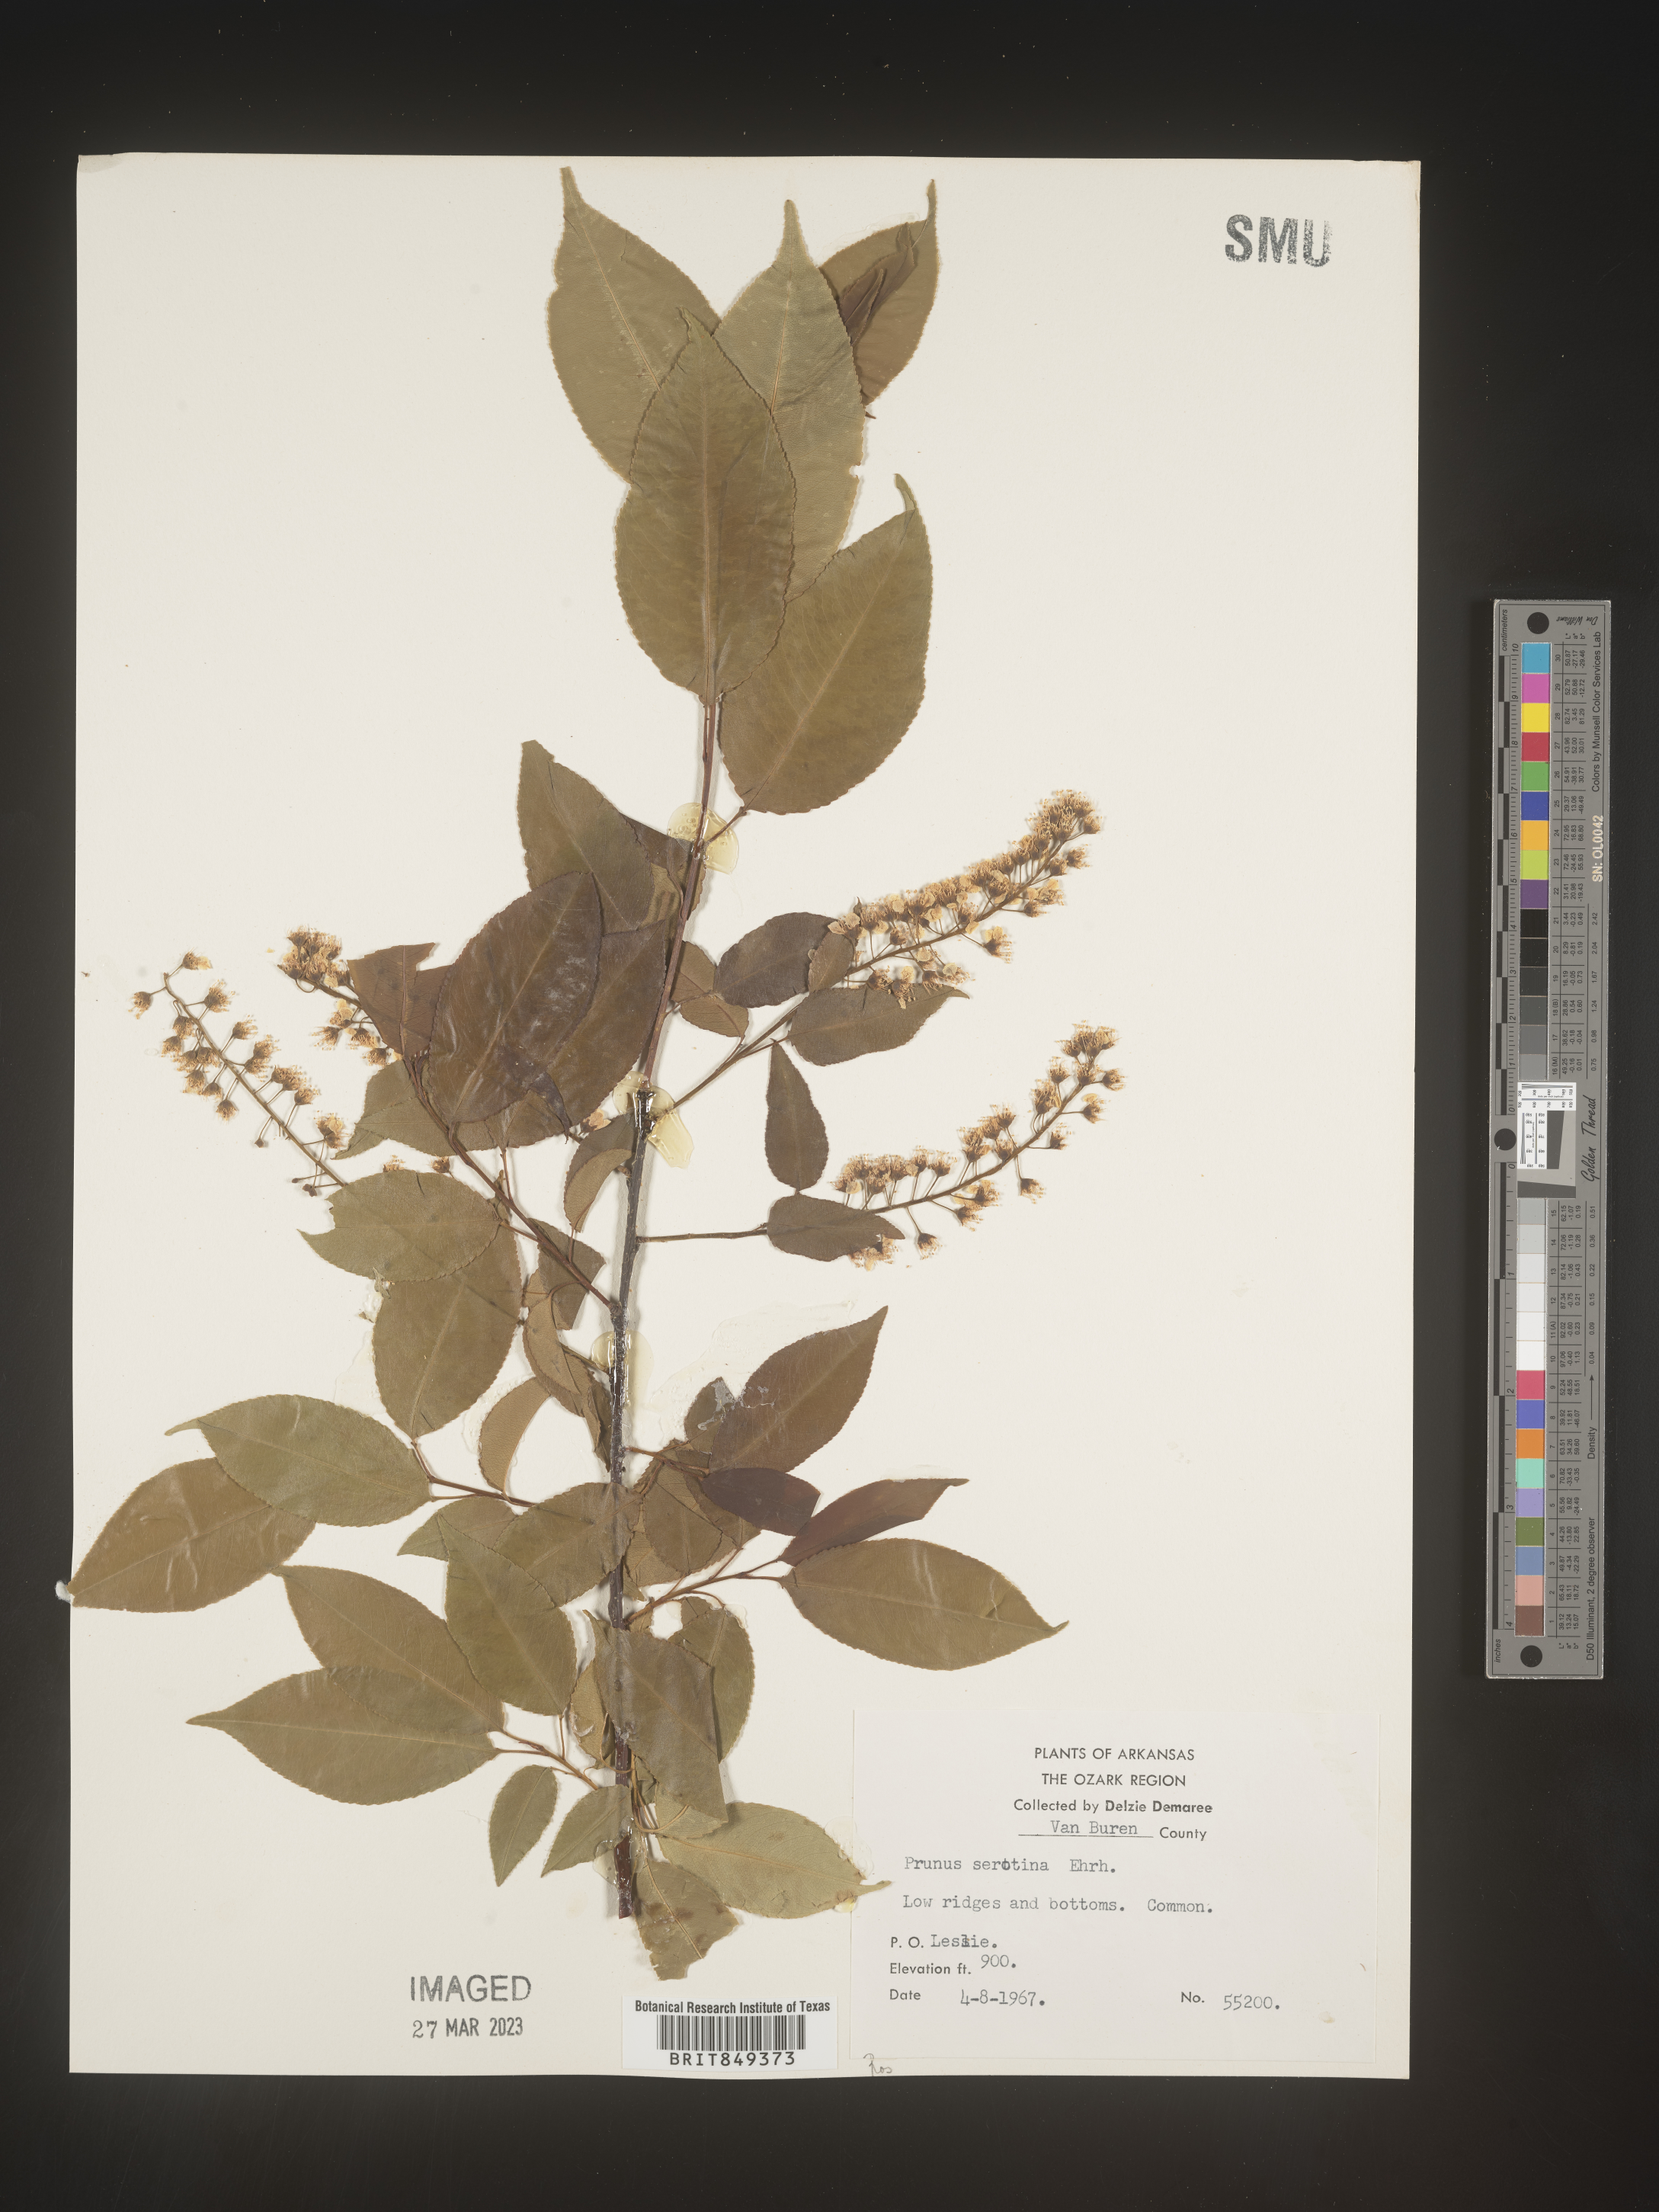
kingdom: Plantae
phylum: Tracheophyta
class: Magnoliopsida
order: Rosales
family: Rosaceae
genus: Prunus
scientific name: Prunus serotina
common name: Black cherry
